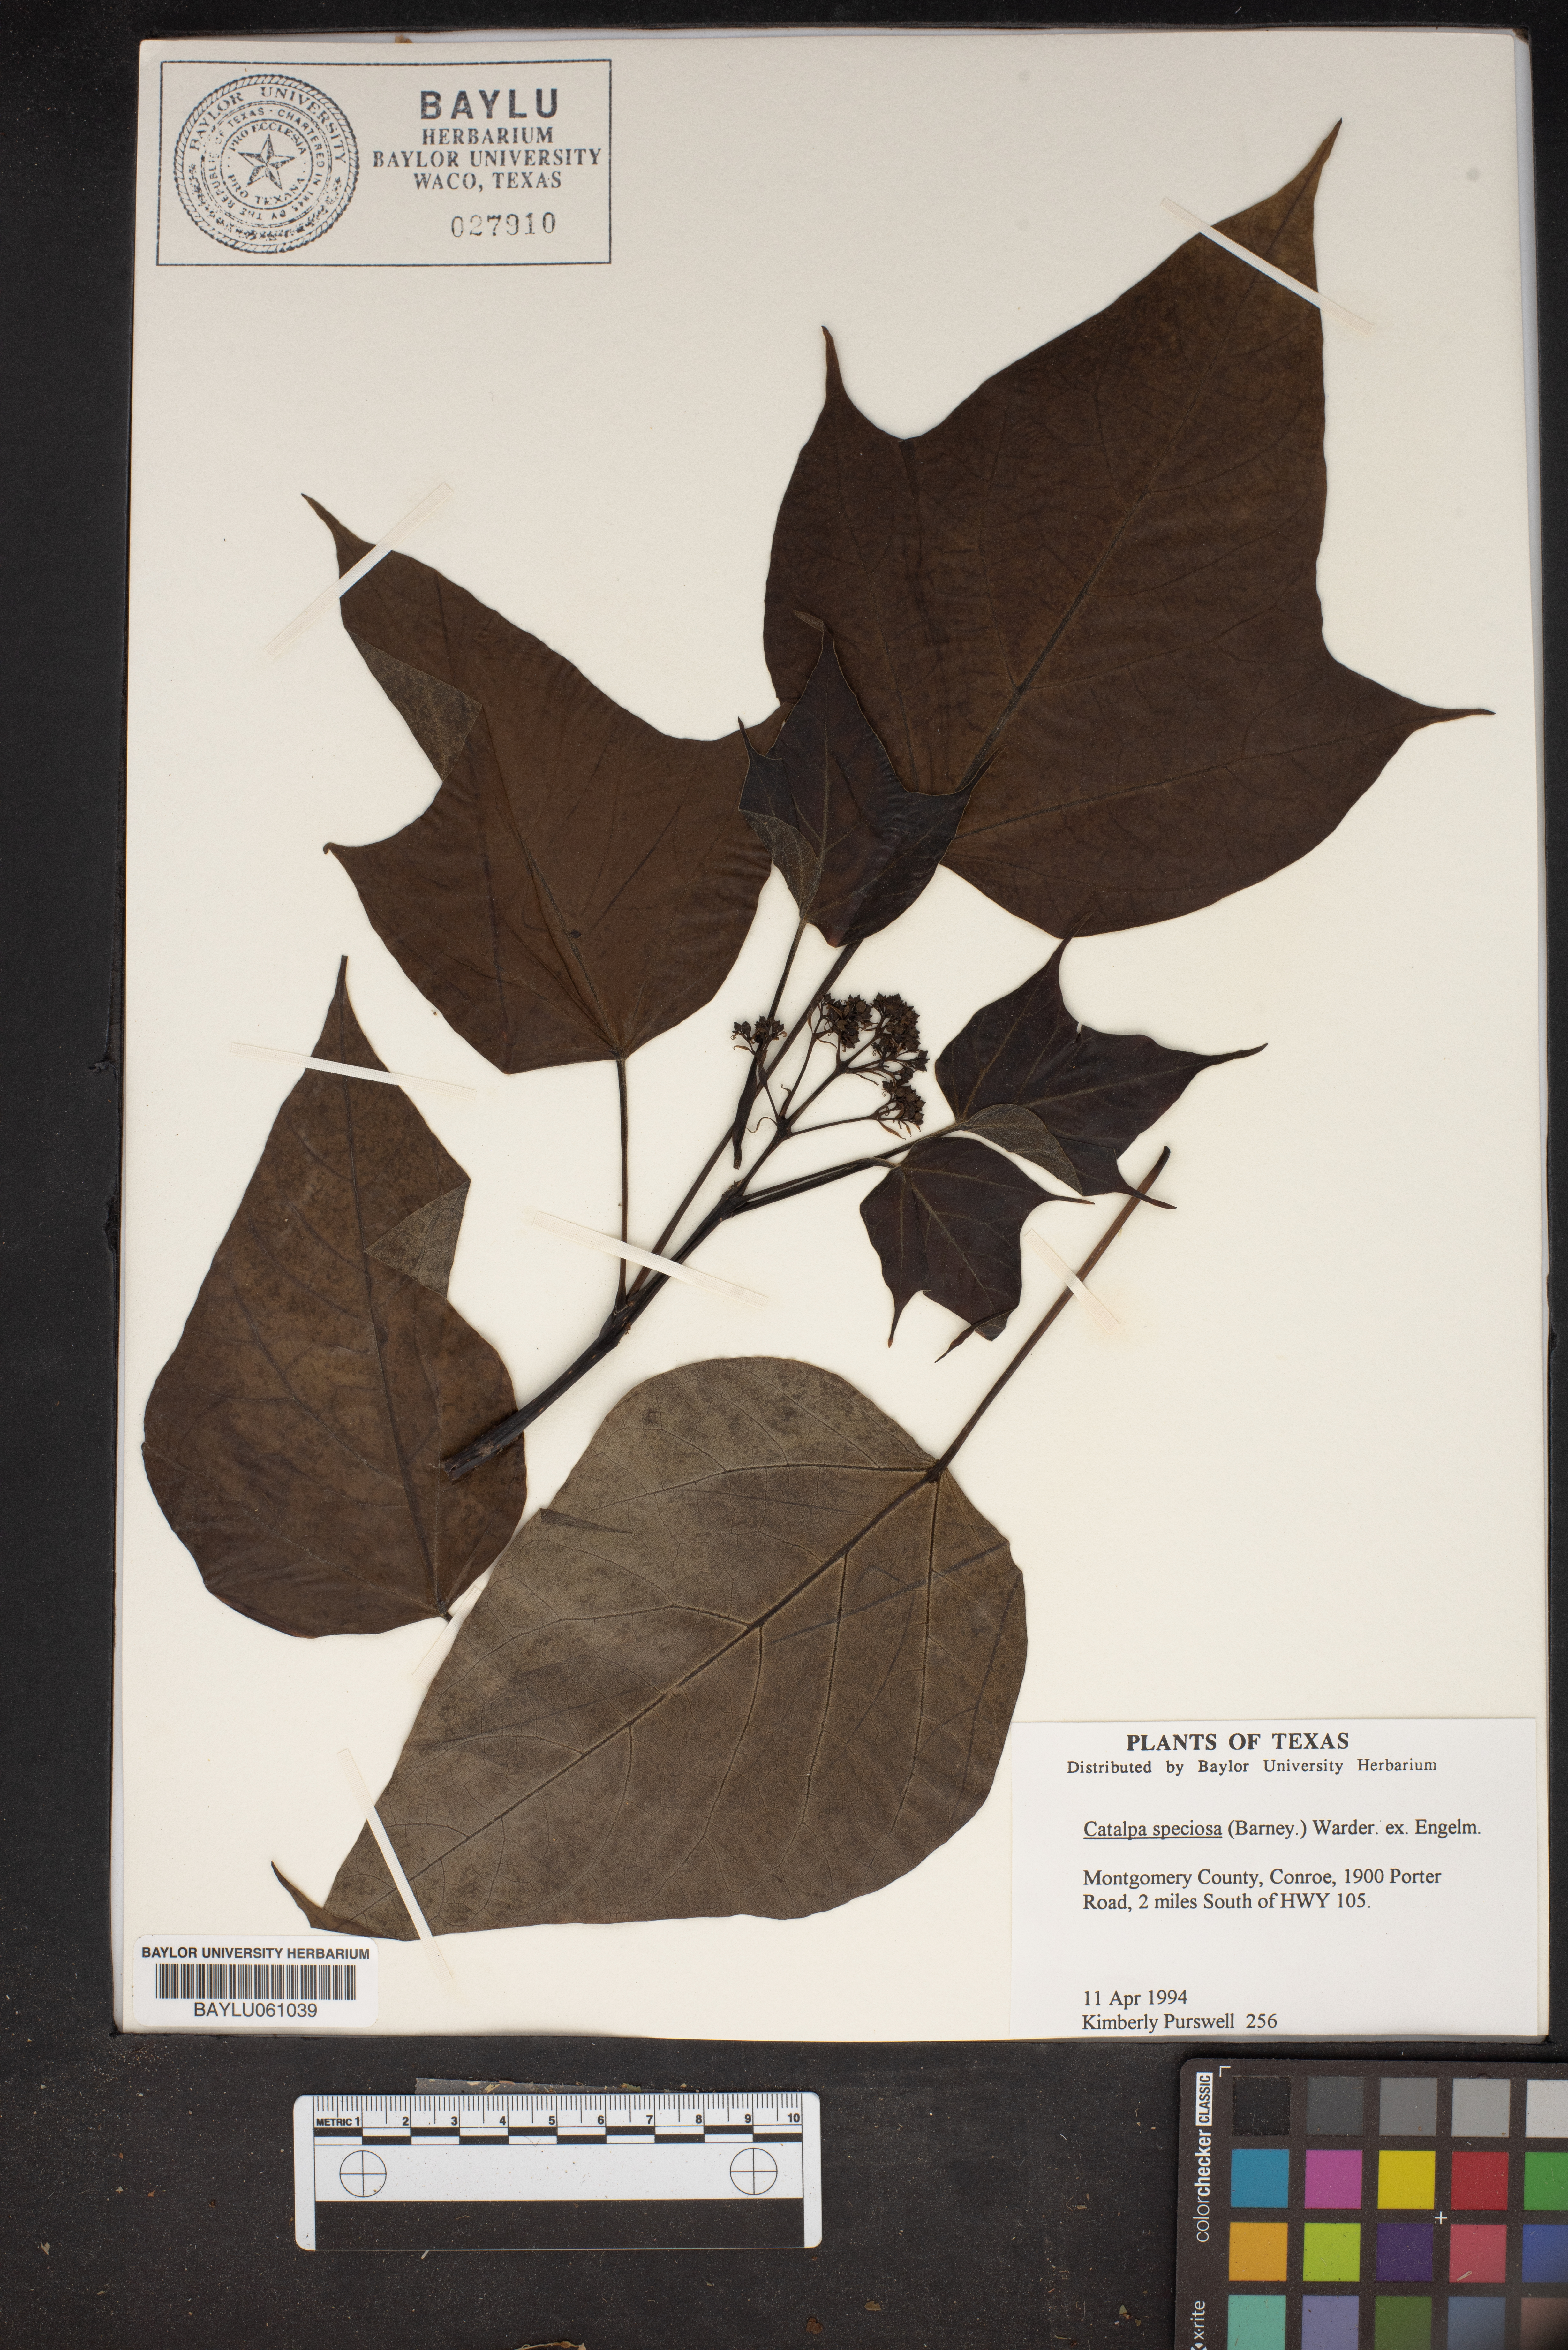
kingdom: Plantae
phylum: Tracheophyta
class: Magnoliopsida
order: Lamiales
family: Bignoniaceae
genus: Catalpa
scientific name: Catalpa speciosa
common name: Northern catalpa
